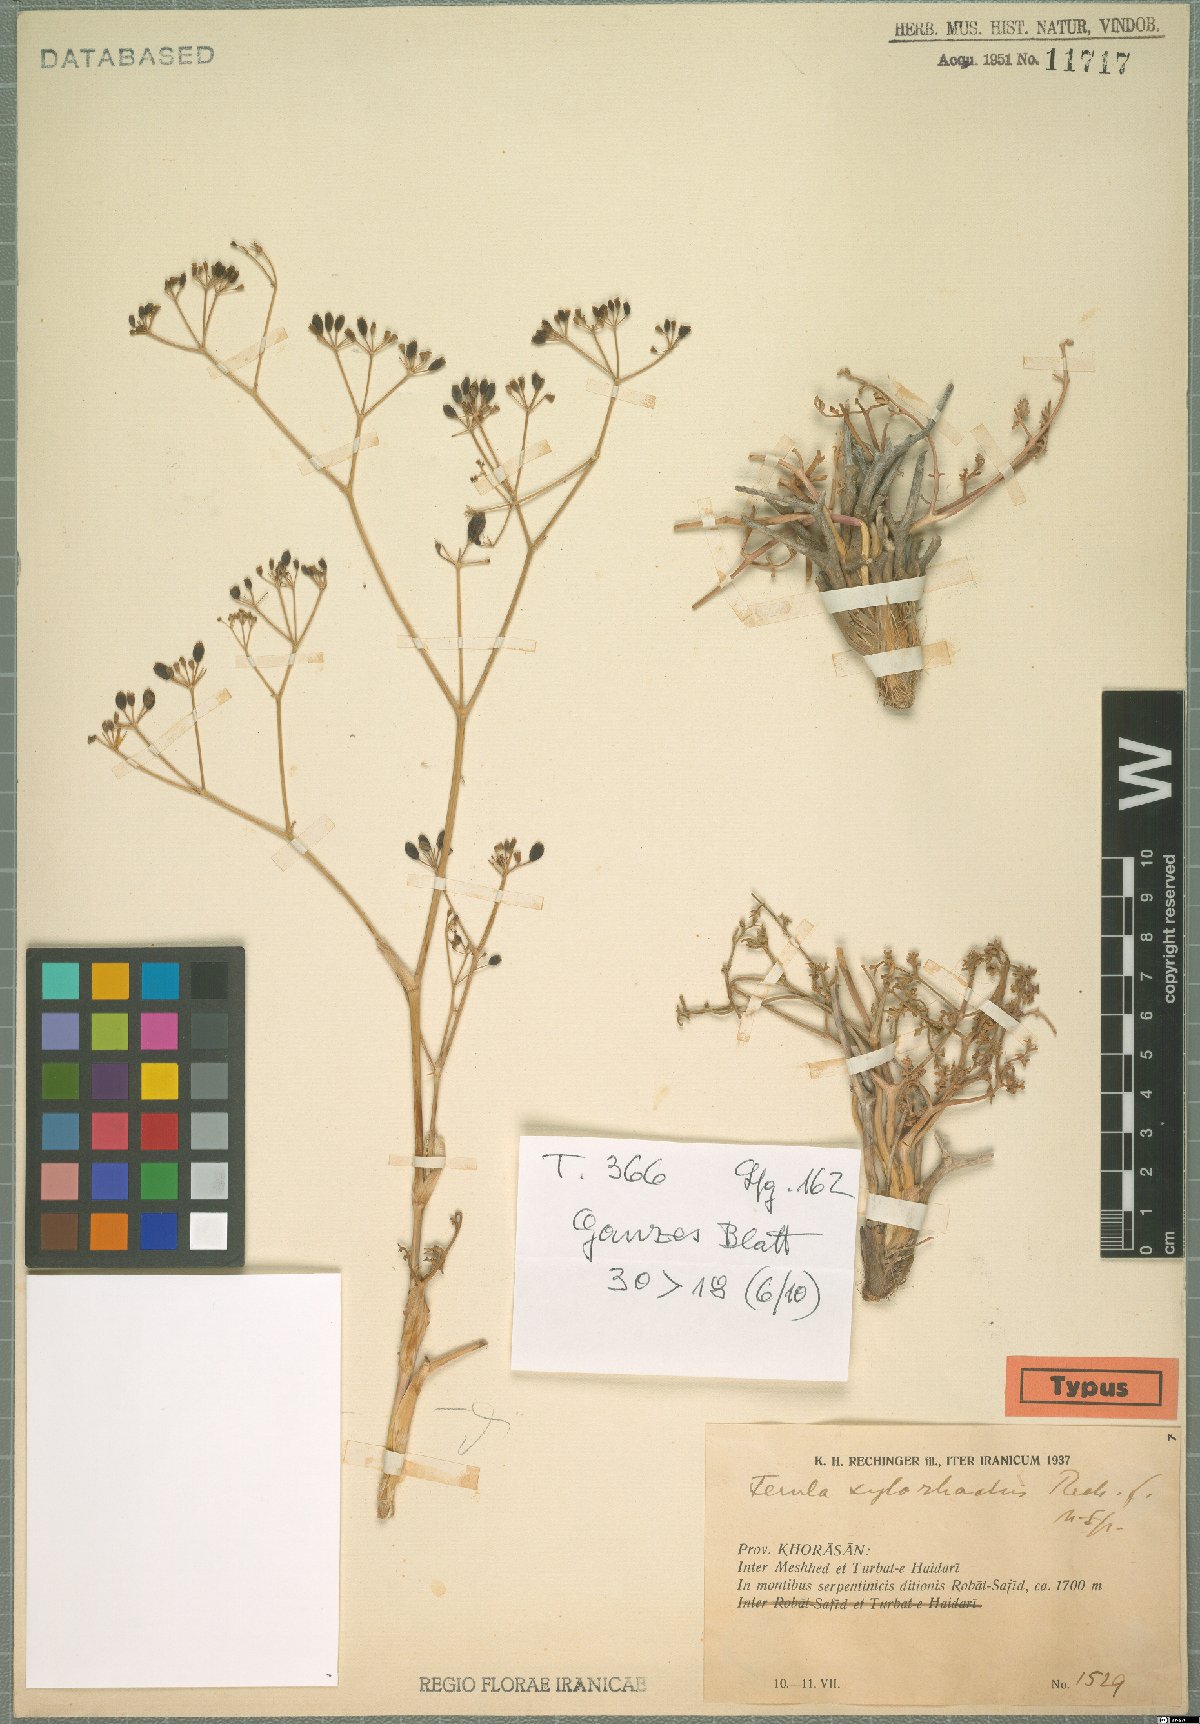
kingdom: Plantae
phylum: Tracheophyta
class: Magnoliopsida
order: Apiales
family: Apiaceae
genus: Ferula
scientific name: Ferula xylorhachis
